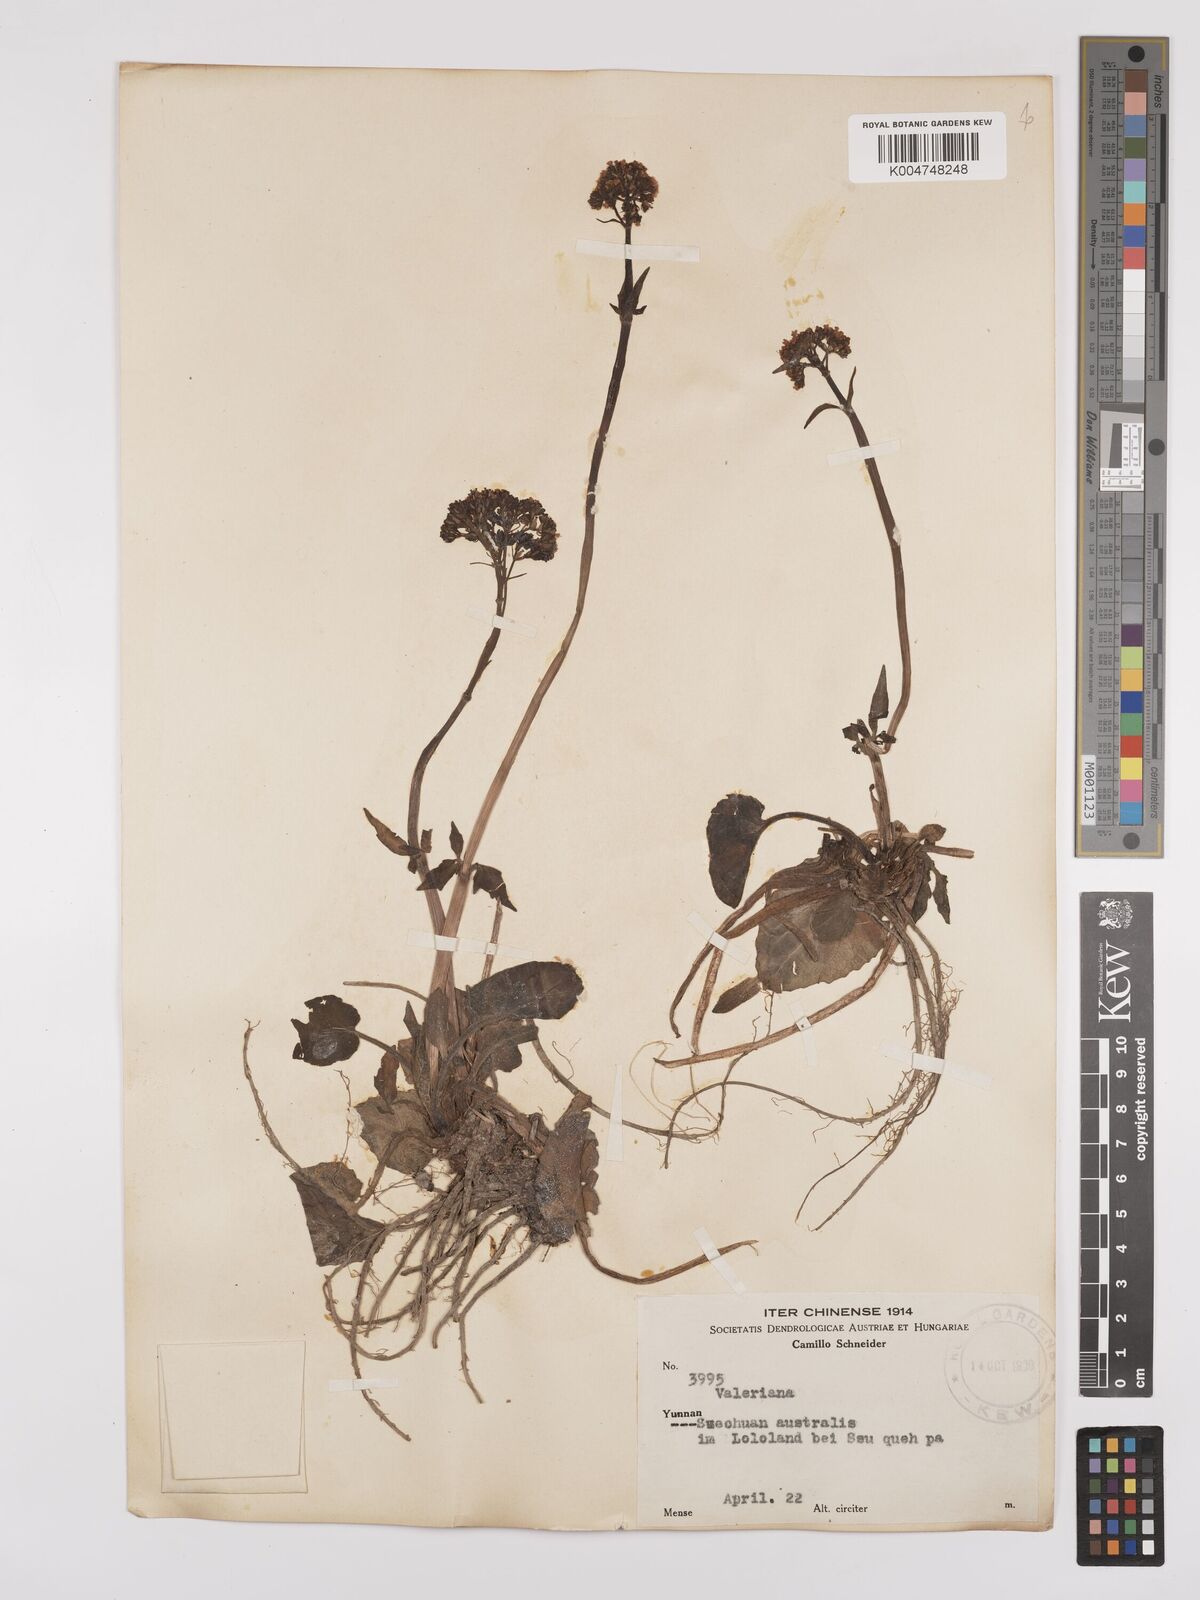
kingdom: Plantae
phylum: Tracheophyta
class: Magnoliopsida
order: Dipsacales
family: Caprifoliaceae
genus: Valeriana
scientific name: Valeriana
